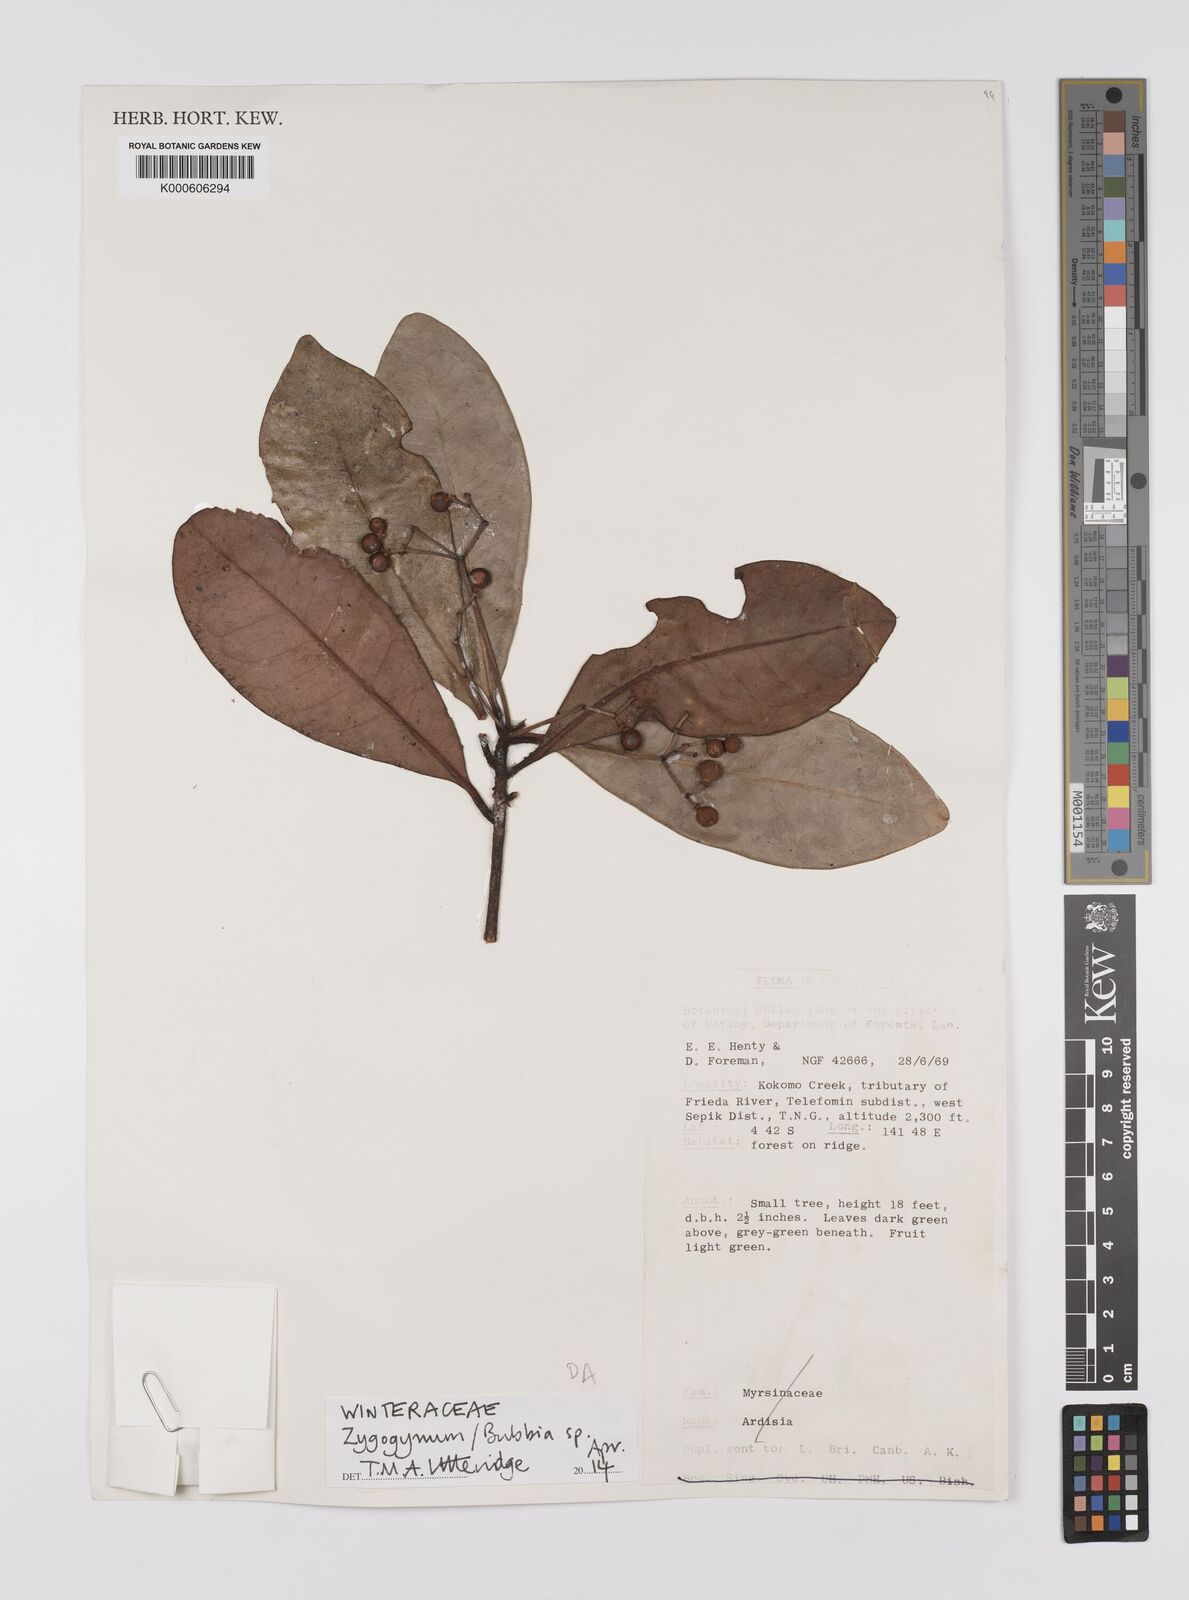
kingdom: Plantae
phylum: Tracheophyta
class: Magnoliopsida
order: Canellales
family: Winteraceae
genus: Zygogynum
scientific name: Zygogynum
